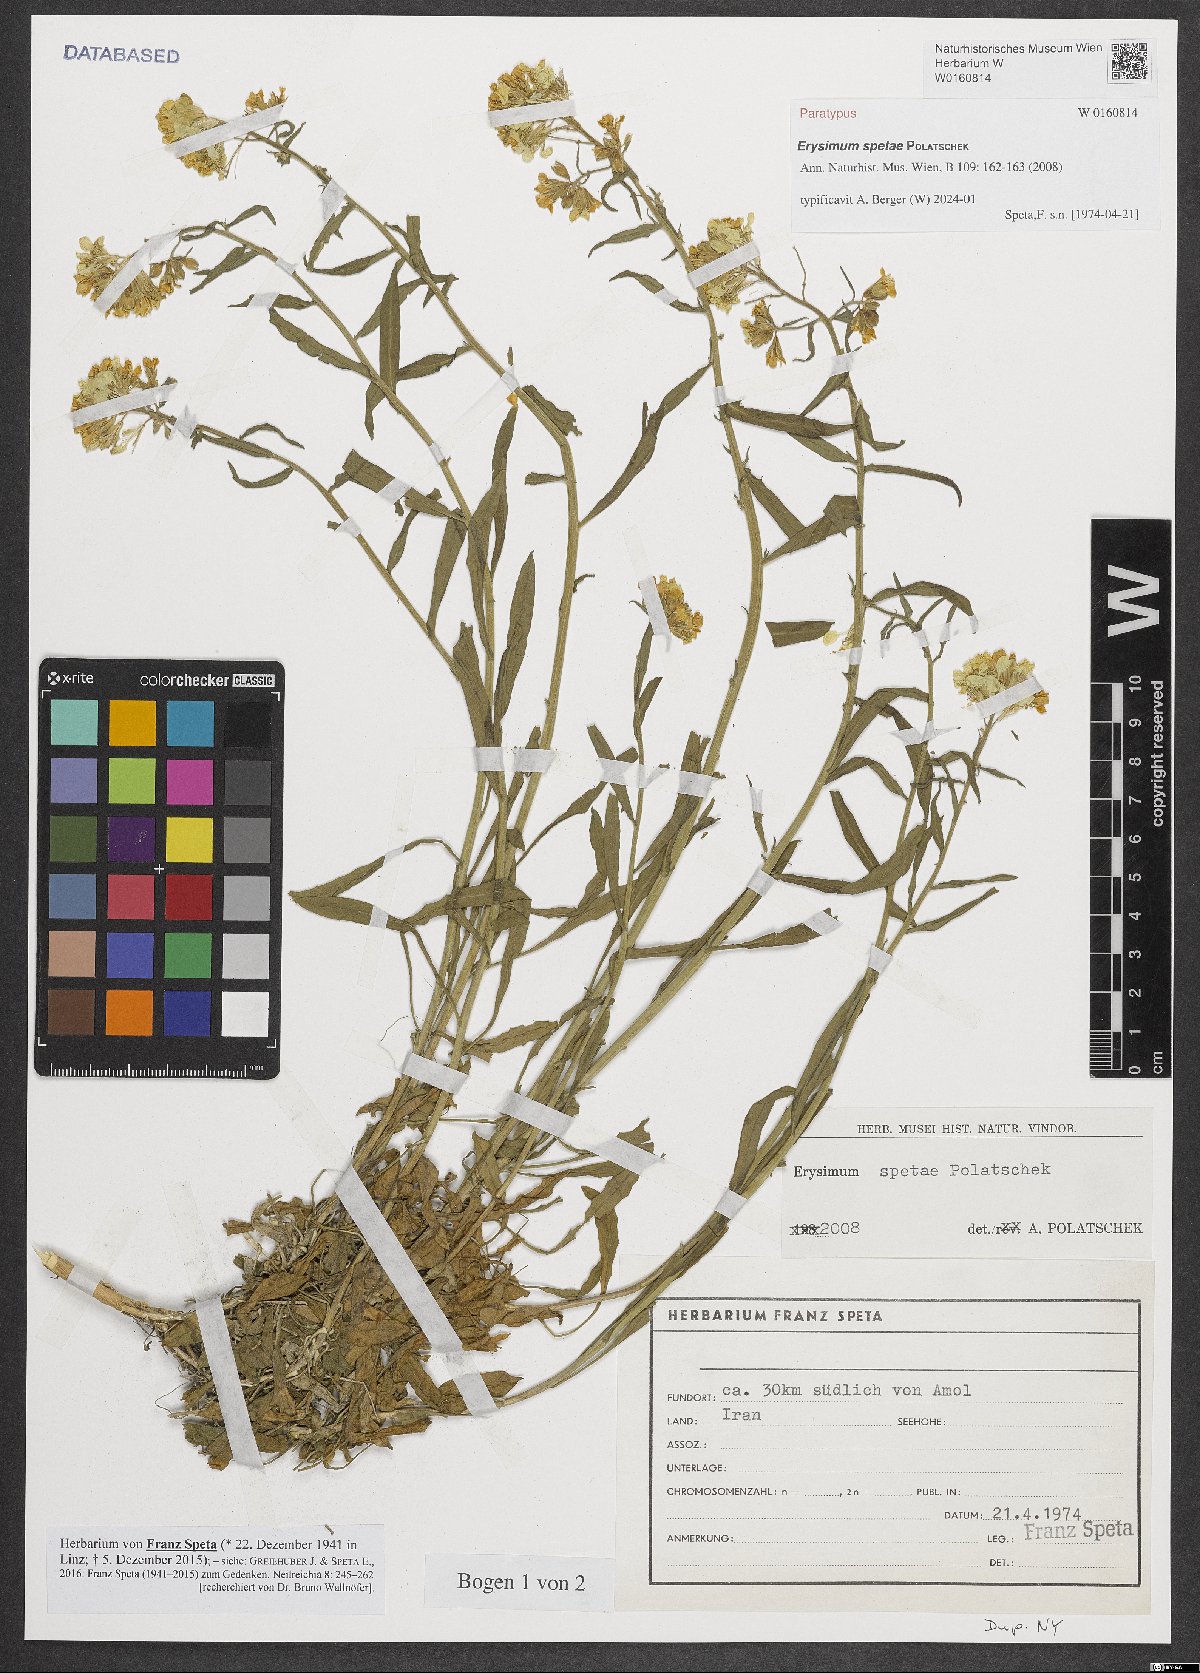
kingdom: Plantae
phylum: Tracheophyta
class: Magnoliopsida
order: Brassicales
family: Brassicaceae
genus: Erysimum
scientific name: Erysimum spetae
